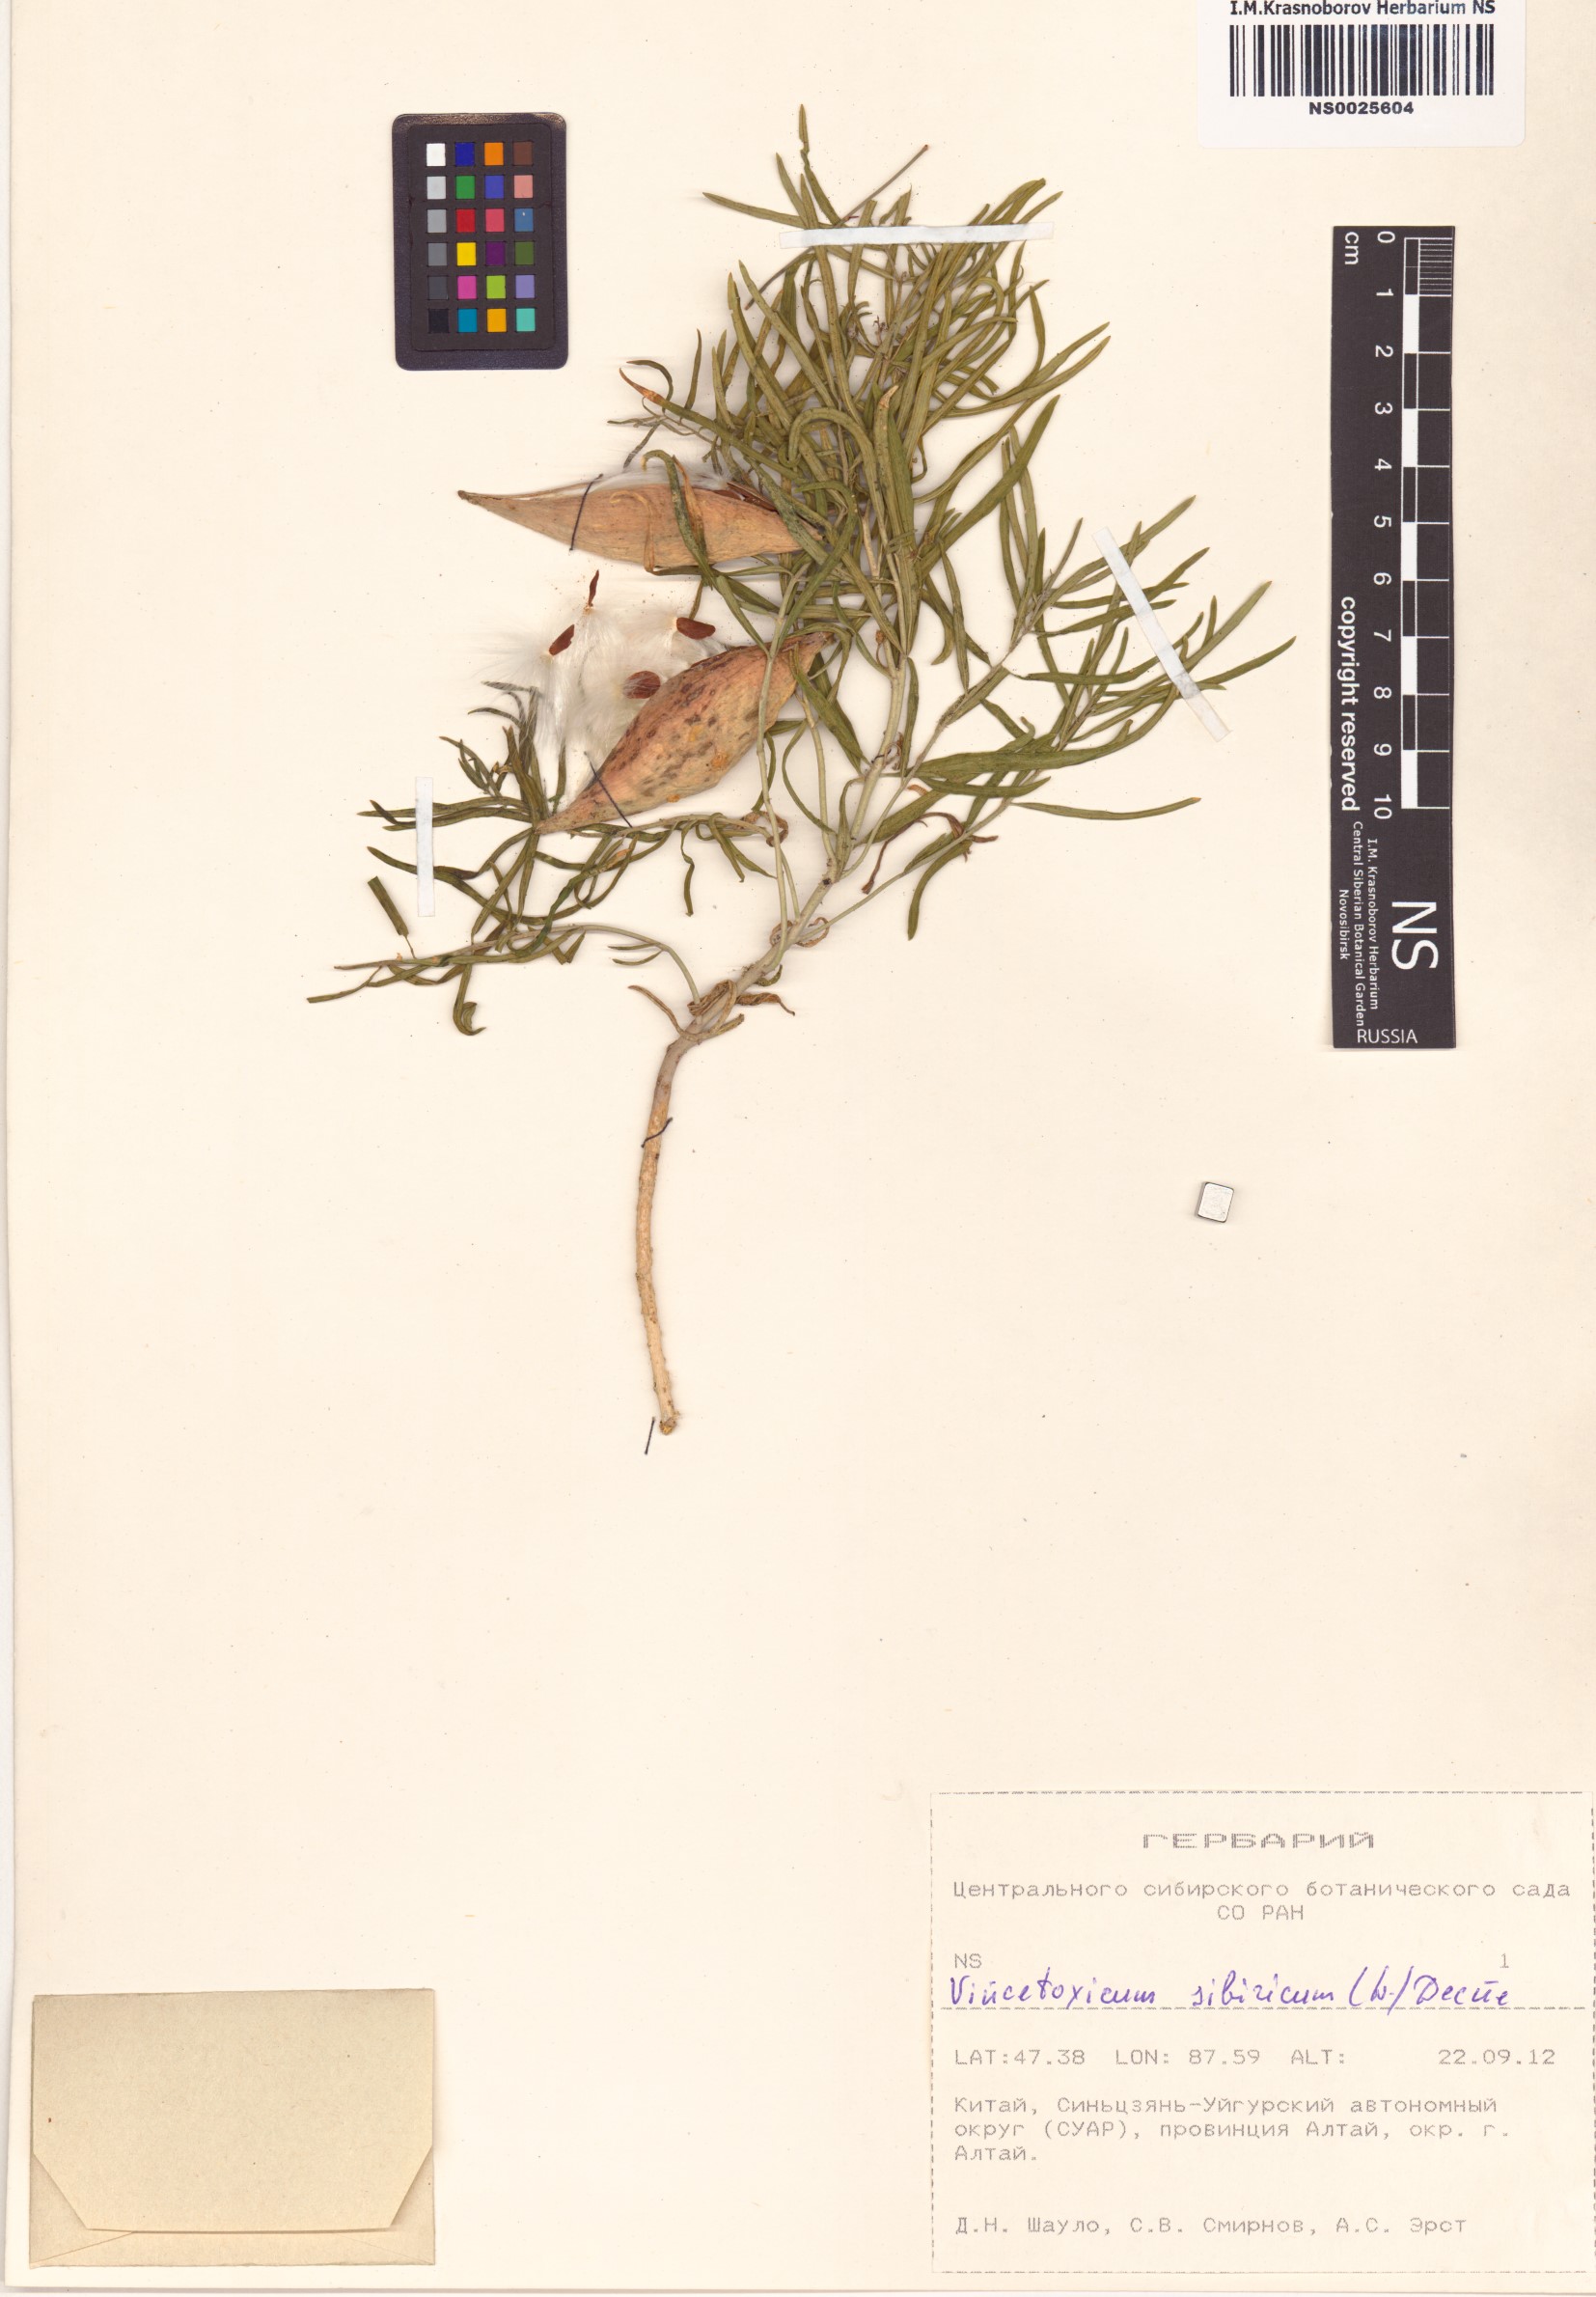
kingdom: Plantae
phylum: Tracheophyta
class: Magnoliopsida
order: Gentianales
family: Apocynaceae
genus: Cynanchum
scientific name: Cynanchum thesioides
